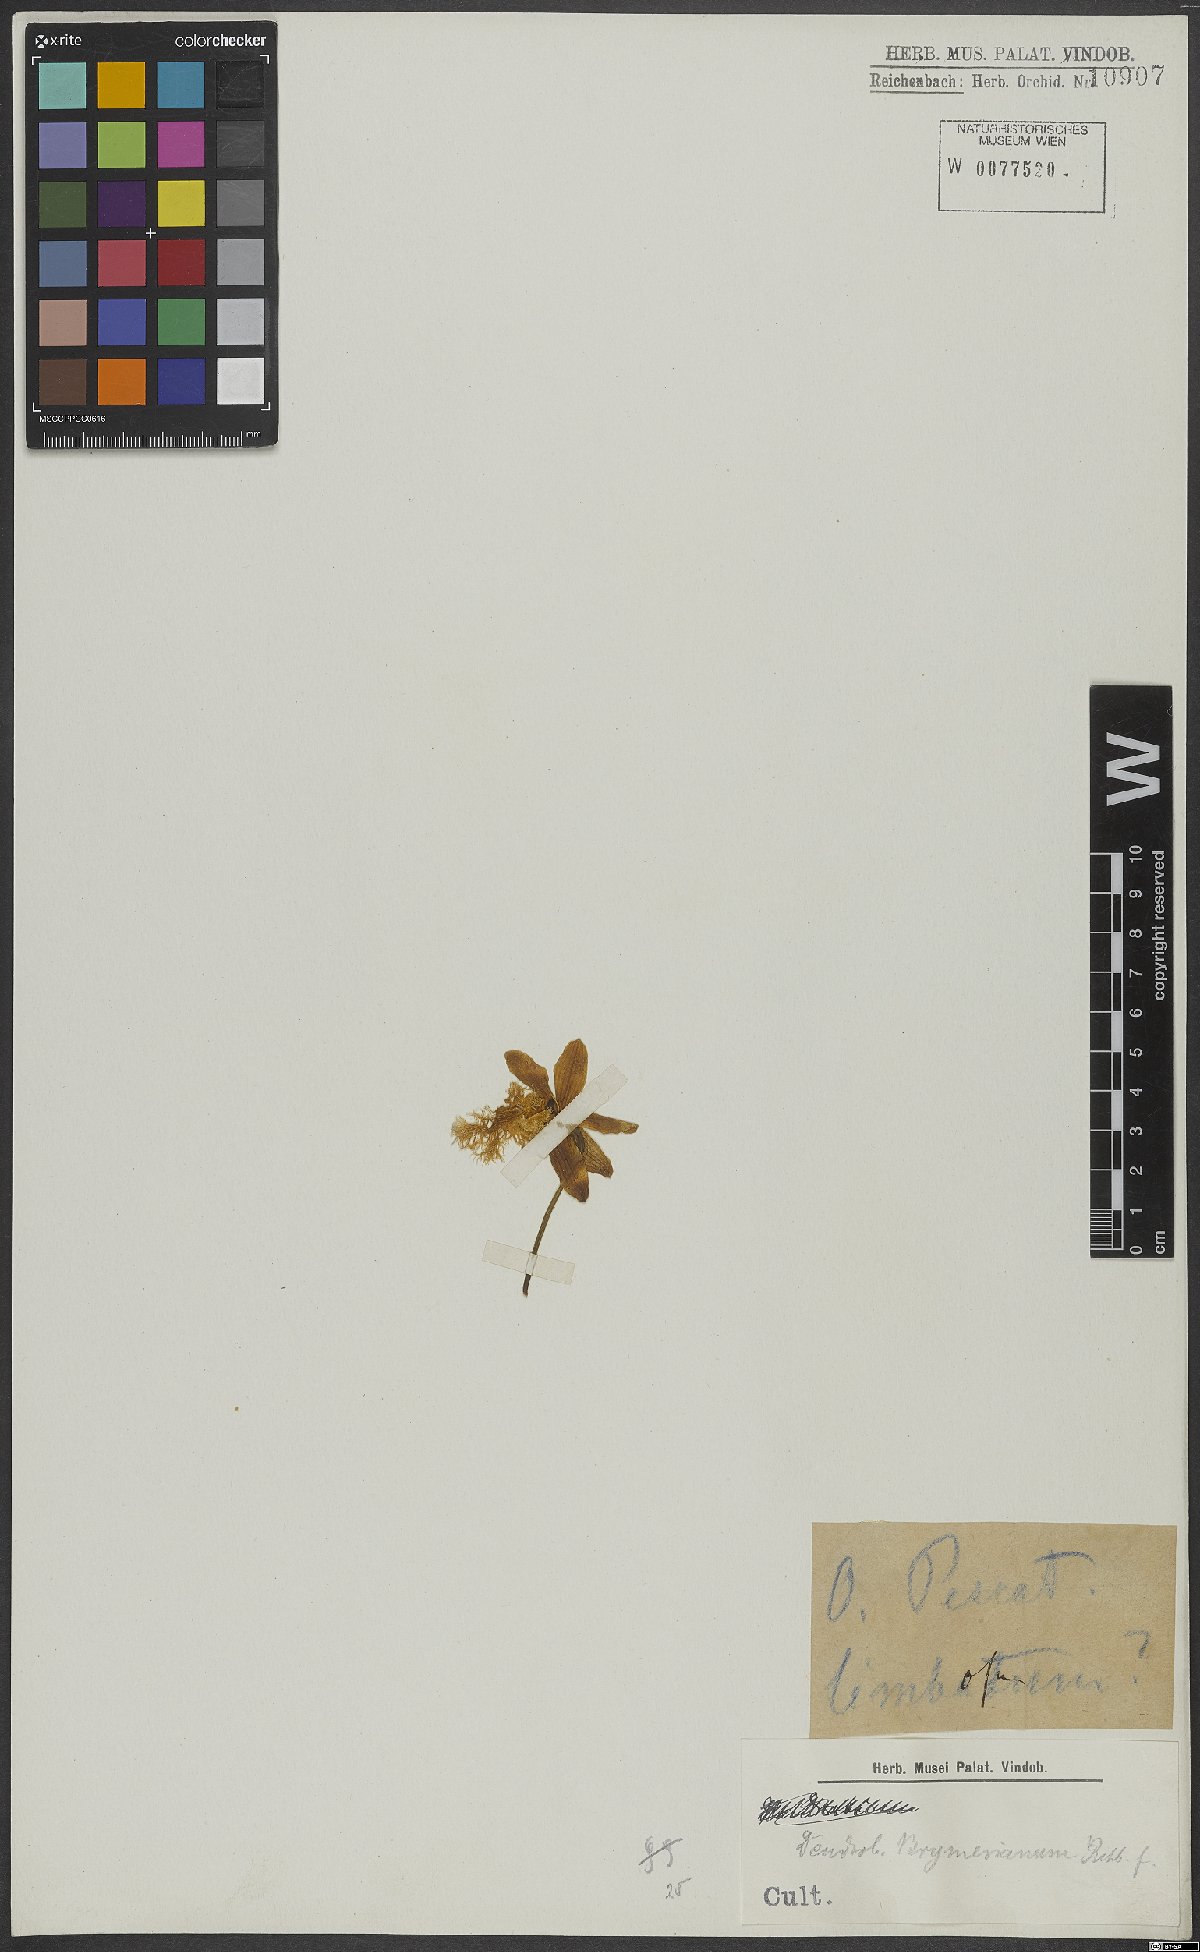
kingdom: Plantae
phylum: Tracheophyta
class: Liliopsida
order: Asparagales
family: Orchidaceae
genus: Dendrobium
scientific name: Dendrobium brymerianum
